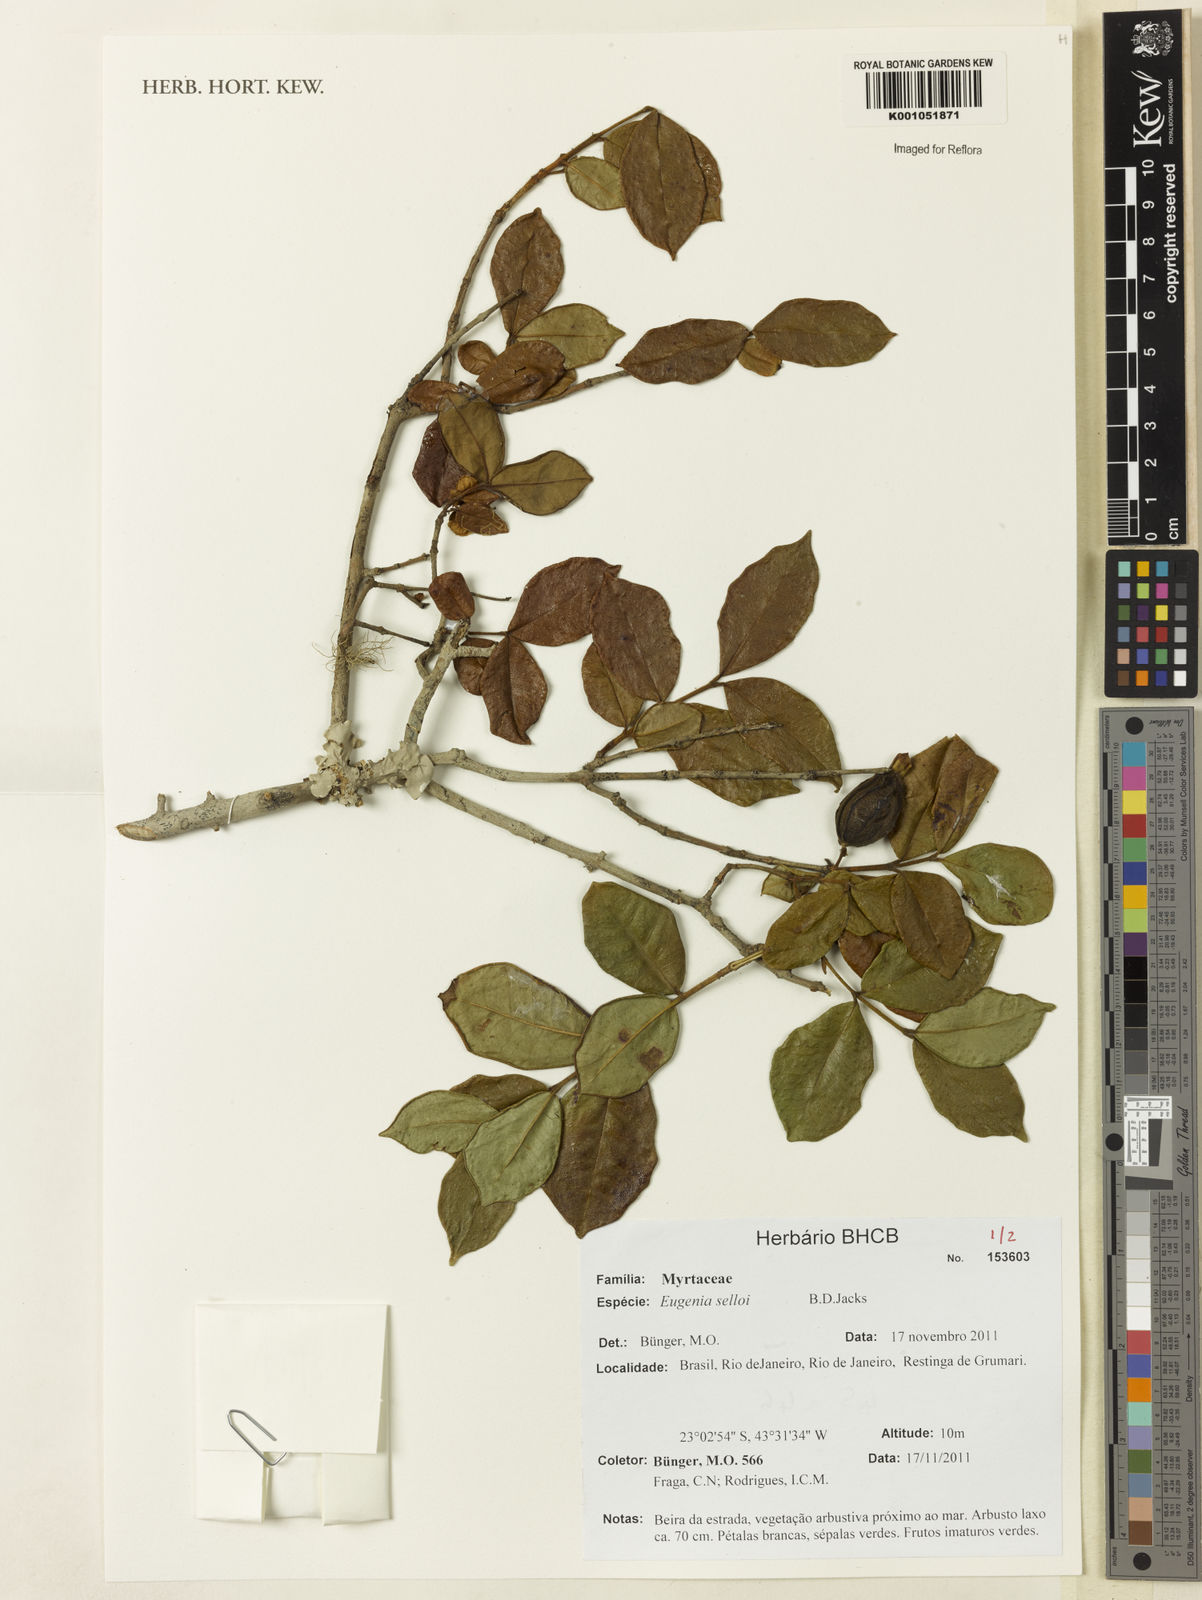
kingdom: Plantae
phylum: Tracheophyta
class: Magnoliopsida
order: Myrtales
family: Myrtaceae
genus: Eugenia
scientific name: Eugenia selloi
